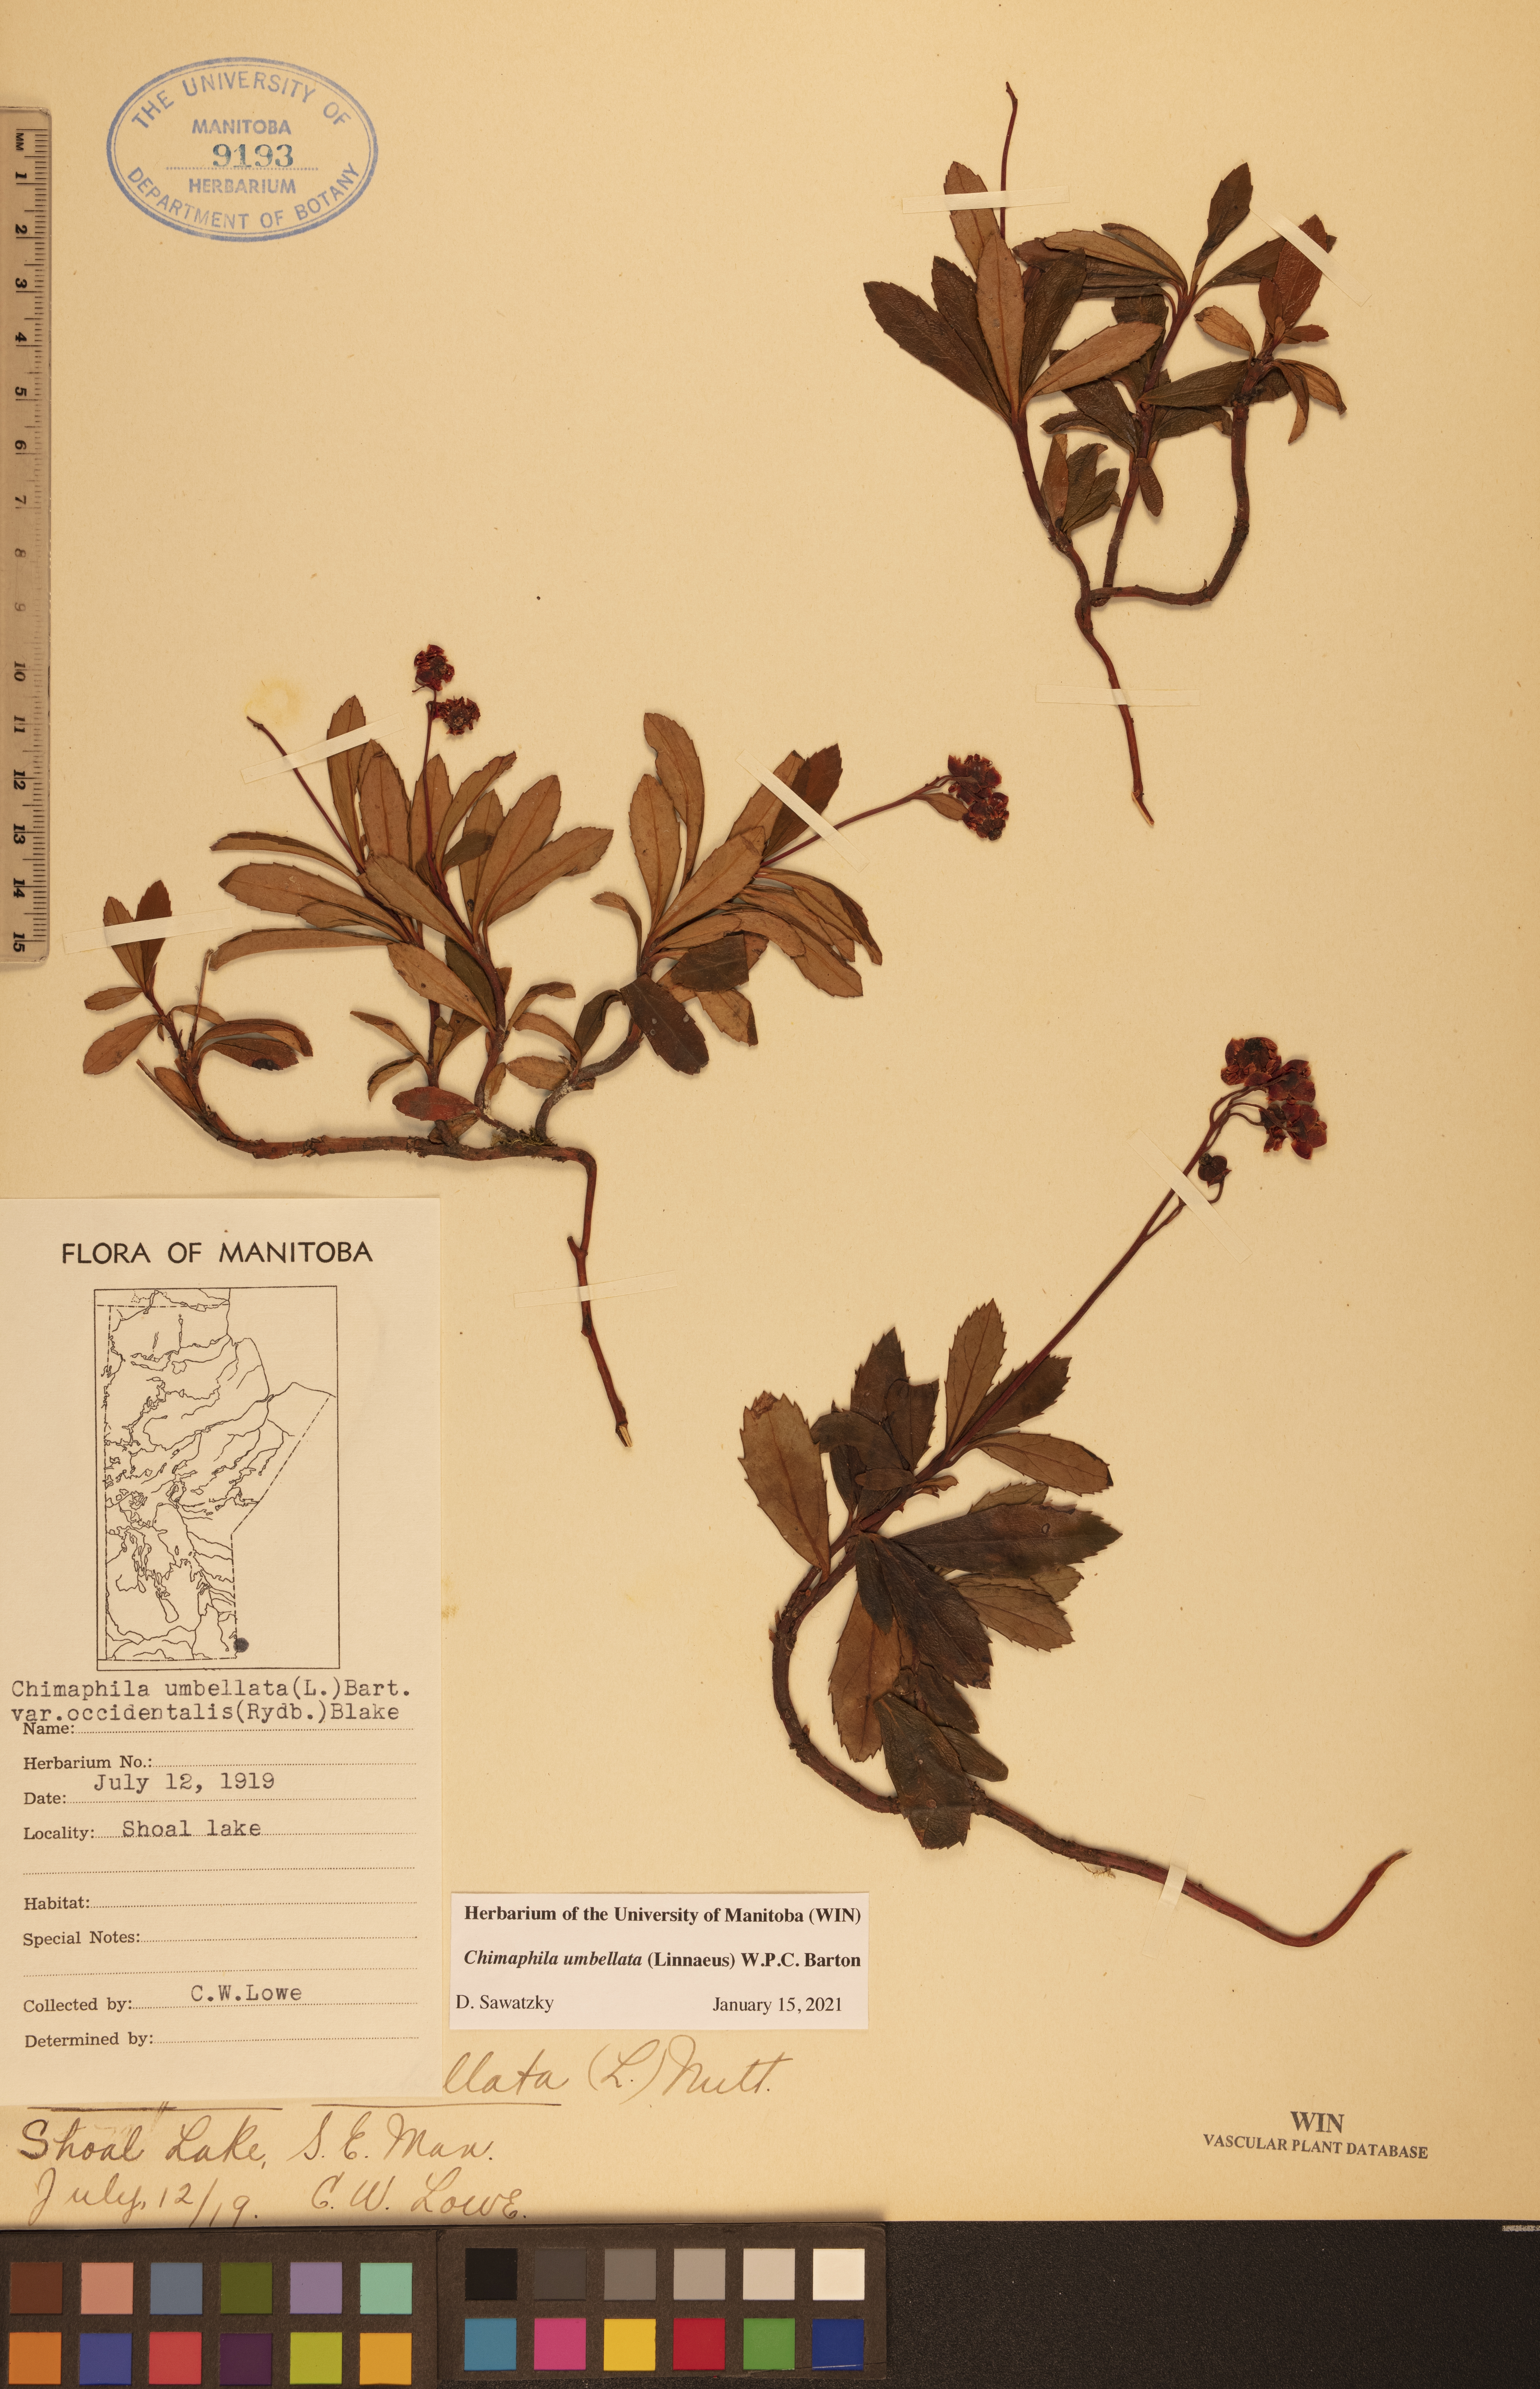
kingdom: Plantae
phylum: Tracheophyta
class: Magnoliopsida
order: Ericales
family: Ericaceae
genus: Chimaphila
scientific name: Chimaphila umbellata
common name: Pipsissewa
